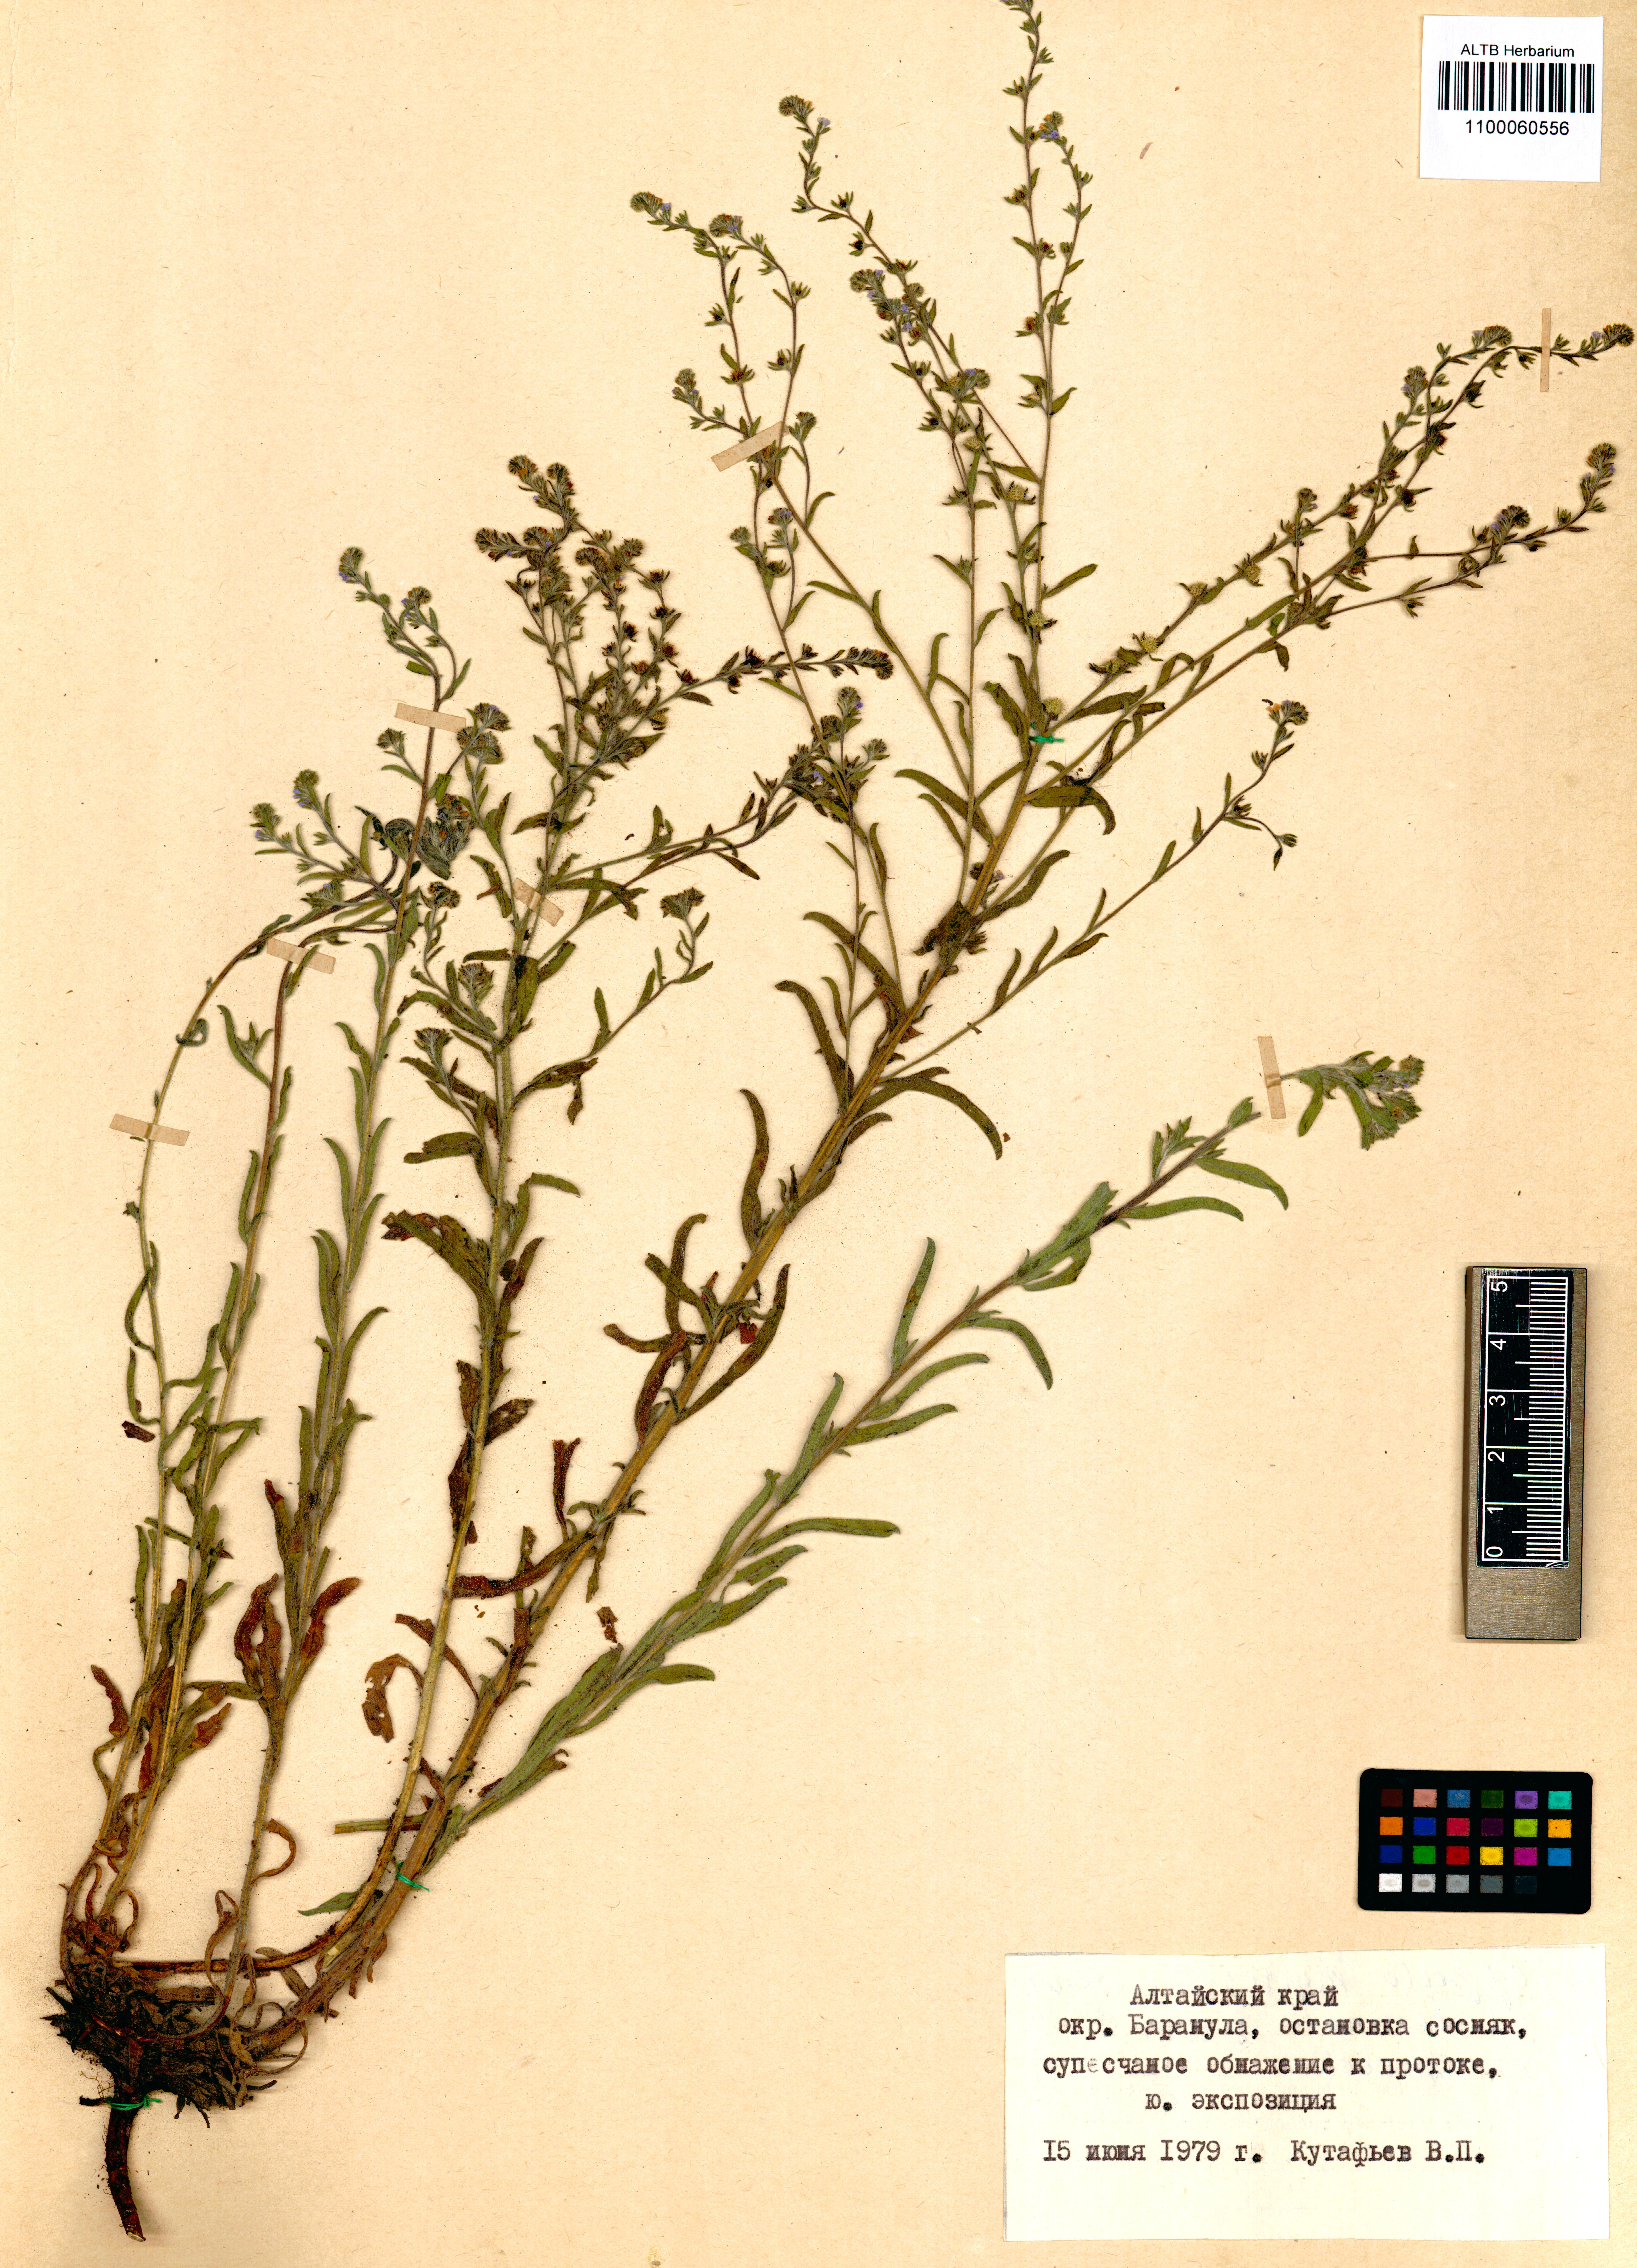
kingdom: Plantae
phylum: Tracheophyta
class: Magnoliopsida
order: Boraginales
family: Boraginaceae
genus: Lappula
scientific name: Lappula squarrosa
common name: European stickseed
